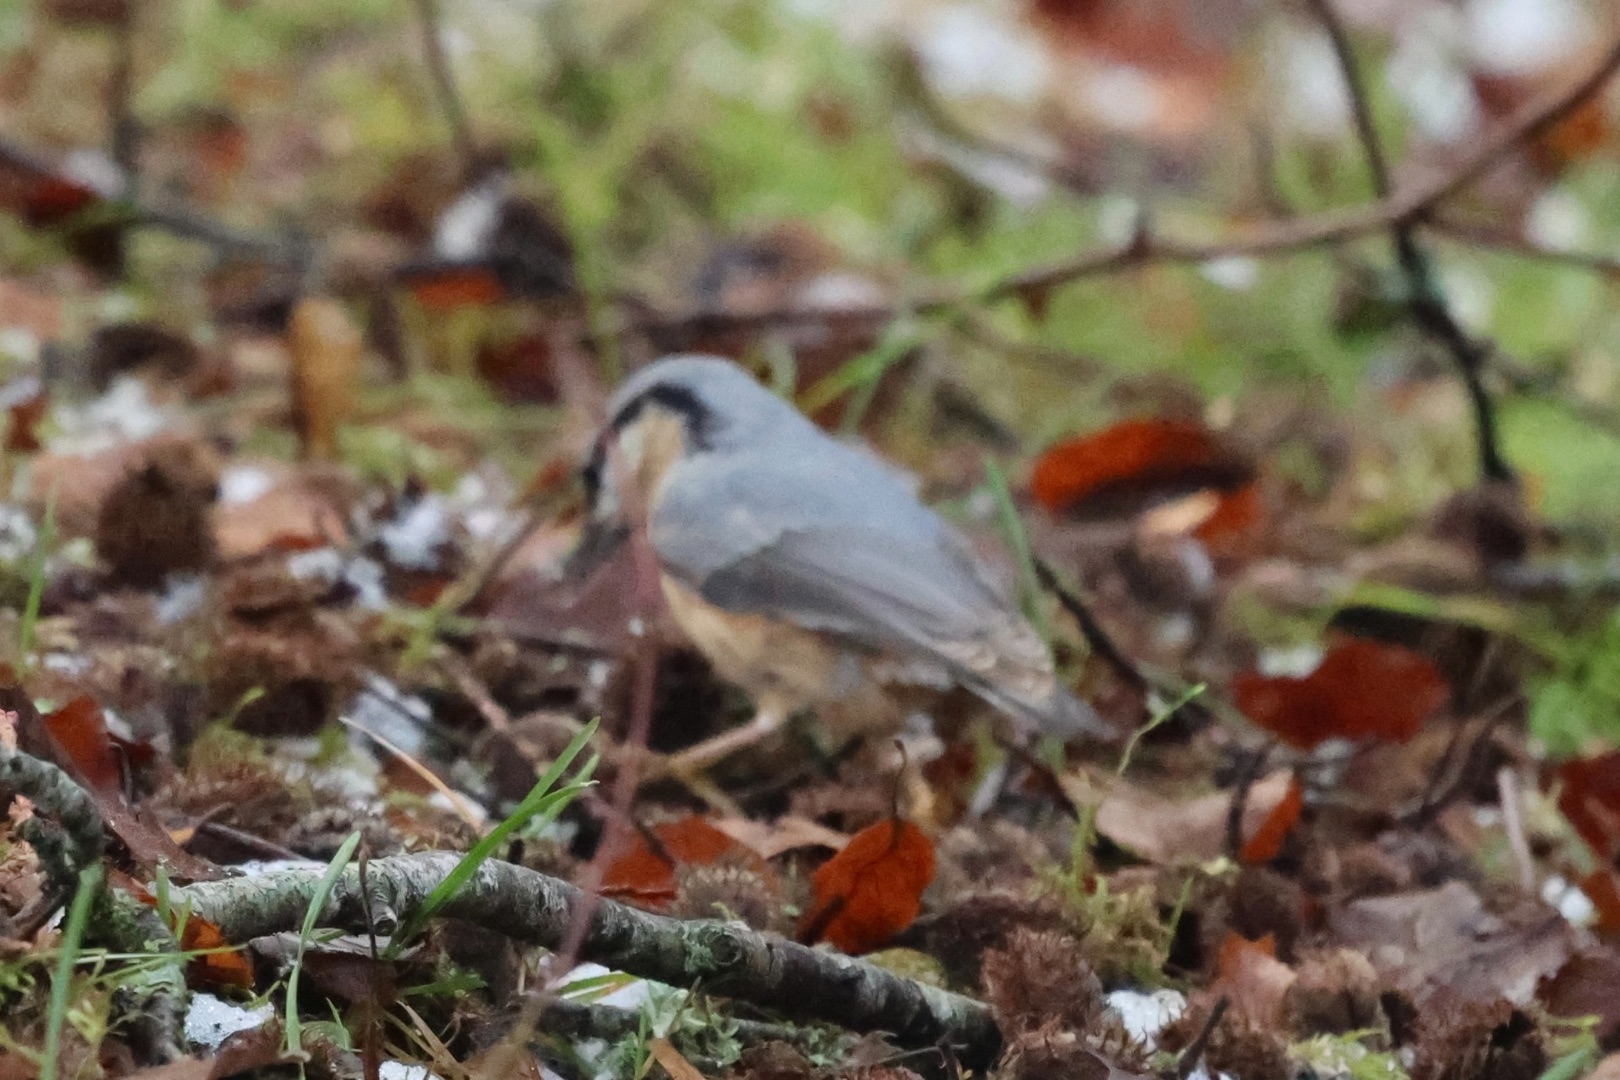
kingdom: Animalia
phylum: Chordata
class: Aves
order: Passeriformes
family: Sittidae
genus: Sitta
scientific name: Sitta europaea
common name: Spætmejse
